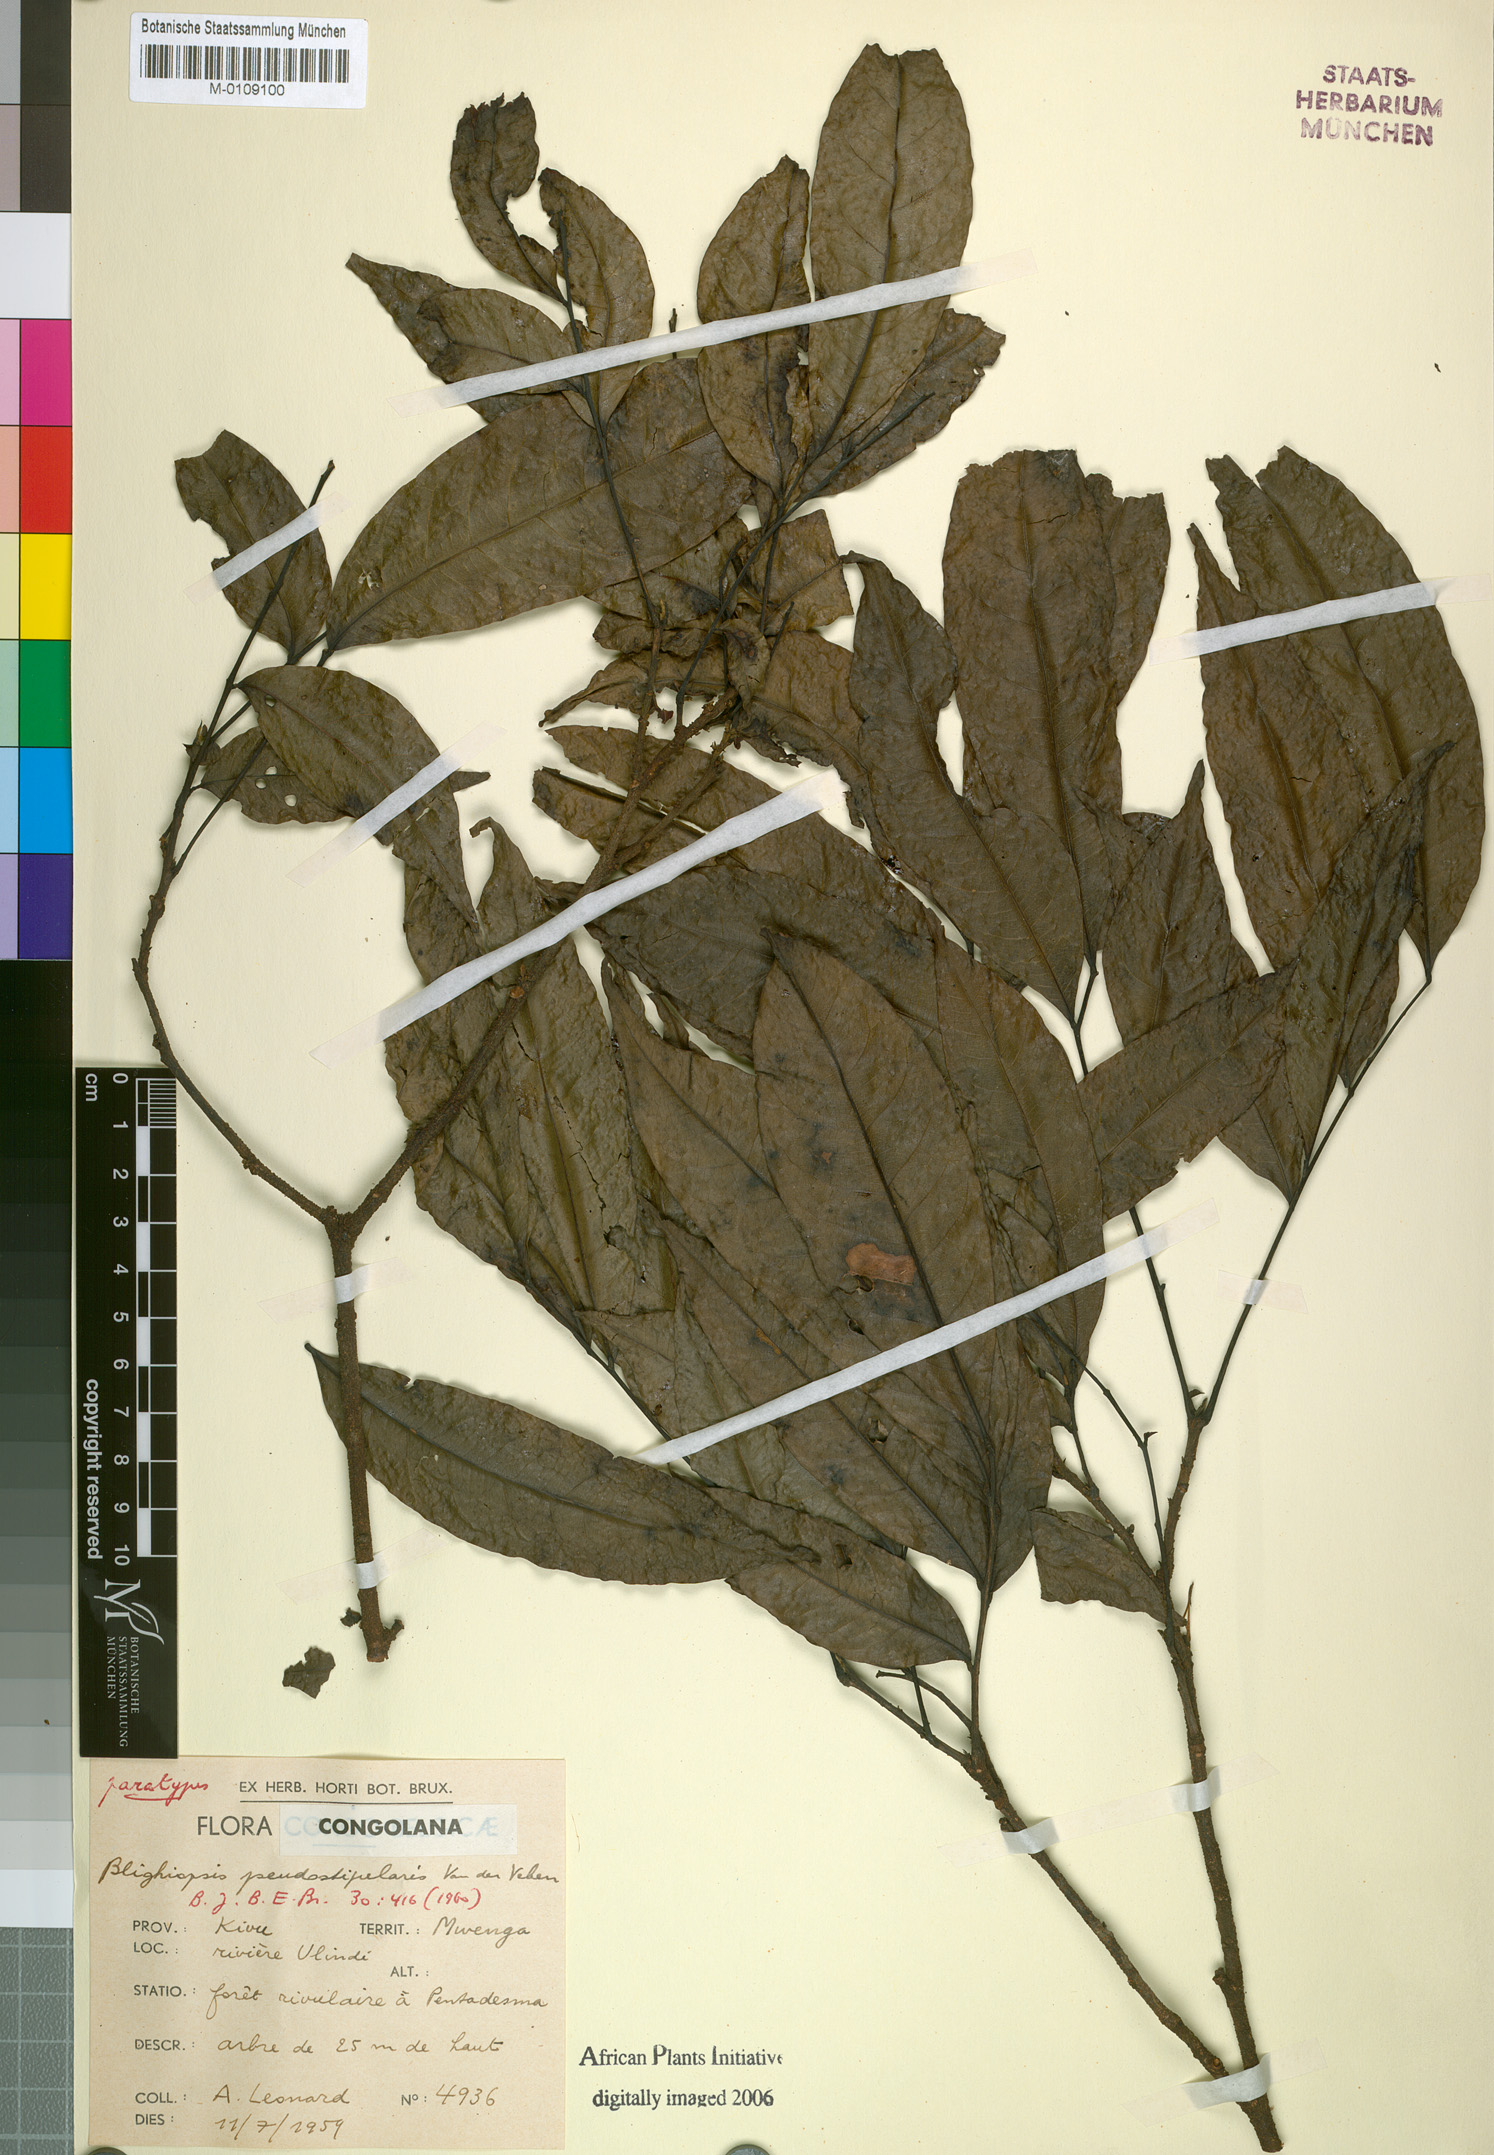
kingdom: Plantae
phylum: Tracheophyta
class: Magnoliopsida
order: Sapindales
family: Sapindaceae
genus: Blighiopsis
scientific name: Blighiopsis pseudostipularis
